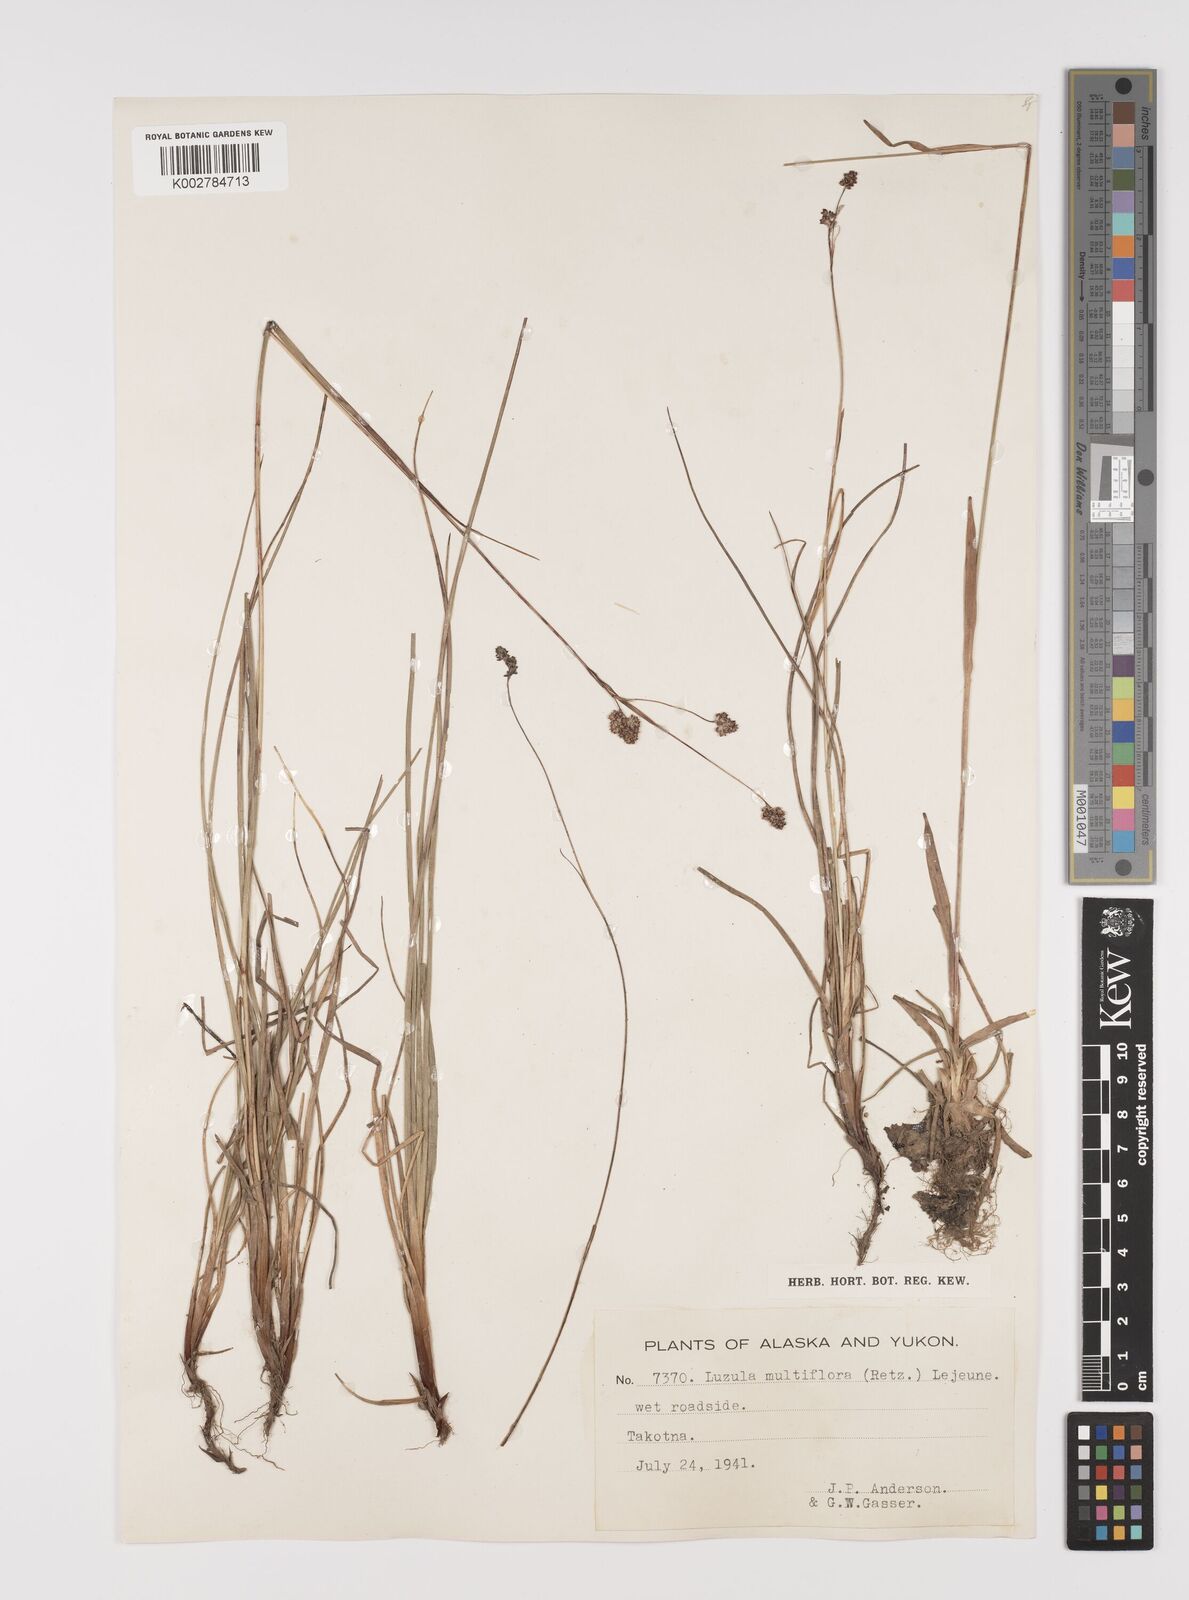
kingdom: Plantae
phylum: Tracheophyta
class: Liliopsida
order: Poales
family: Juncaceae
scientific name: Juncaceae
